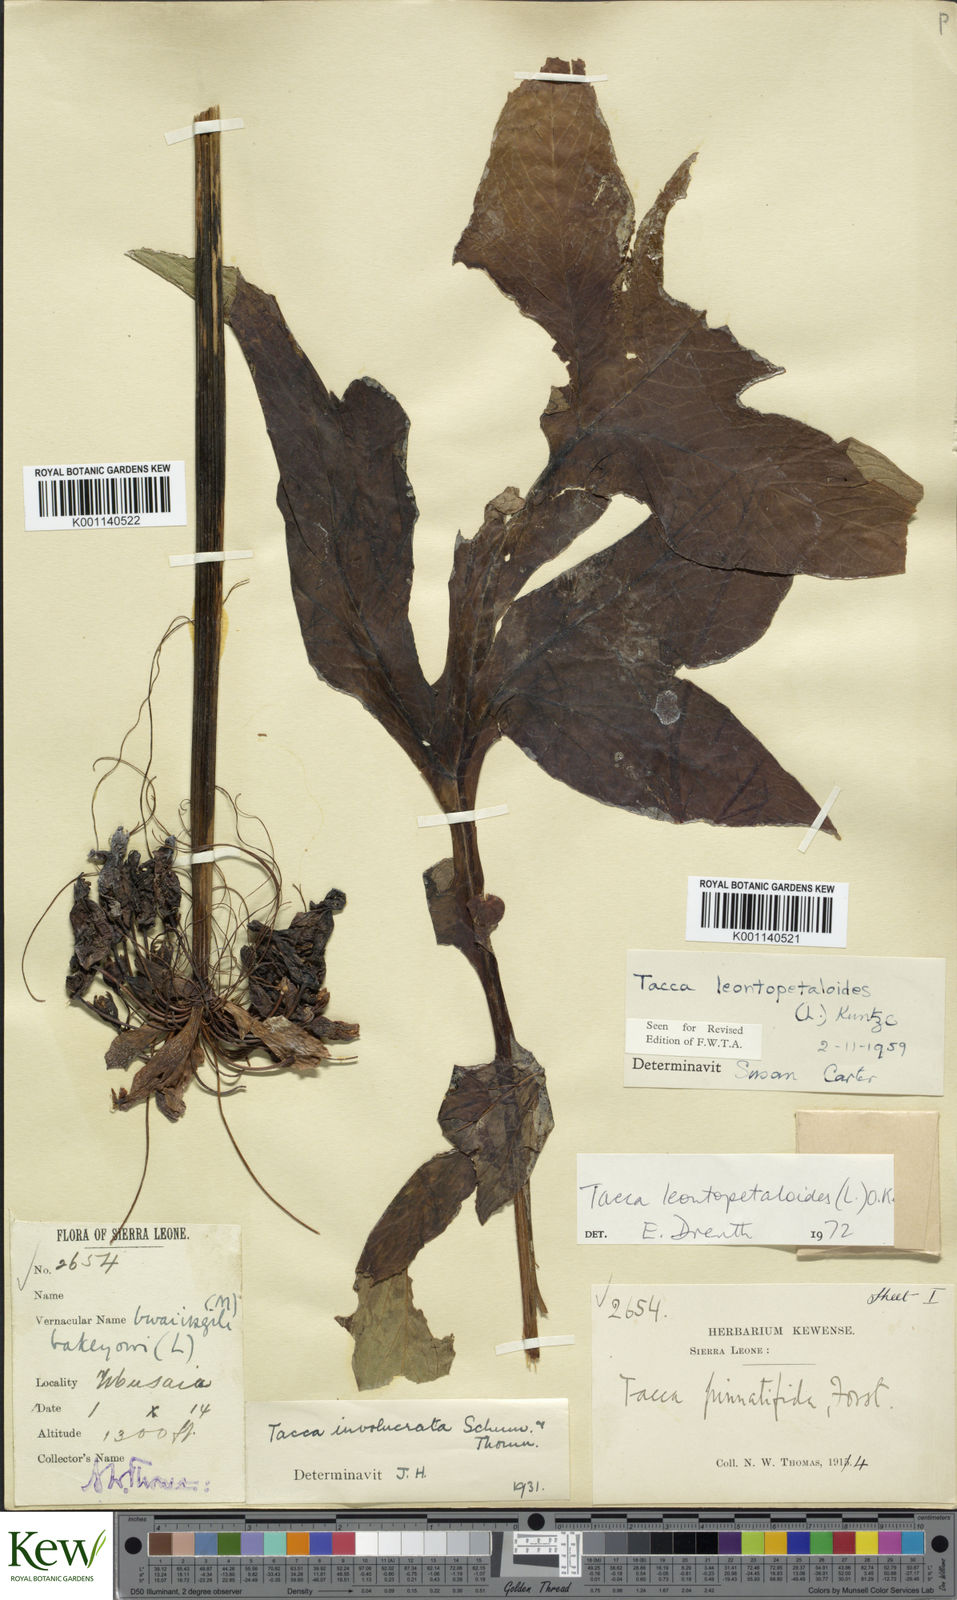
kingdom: Plantae
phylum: Tracheophyta
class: Liliopsida
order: Dioscoreales
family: Dioscoreaceae
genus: Tacca
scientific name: Tacca leontopetaloides
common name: Arrowroot
